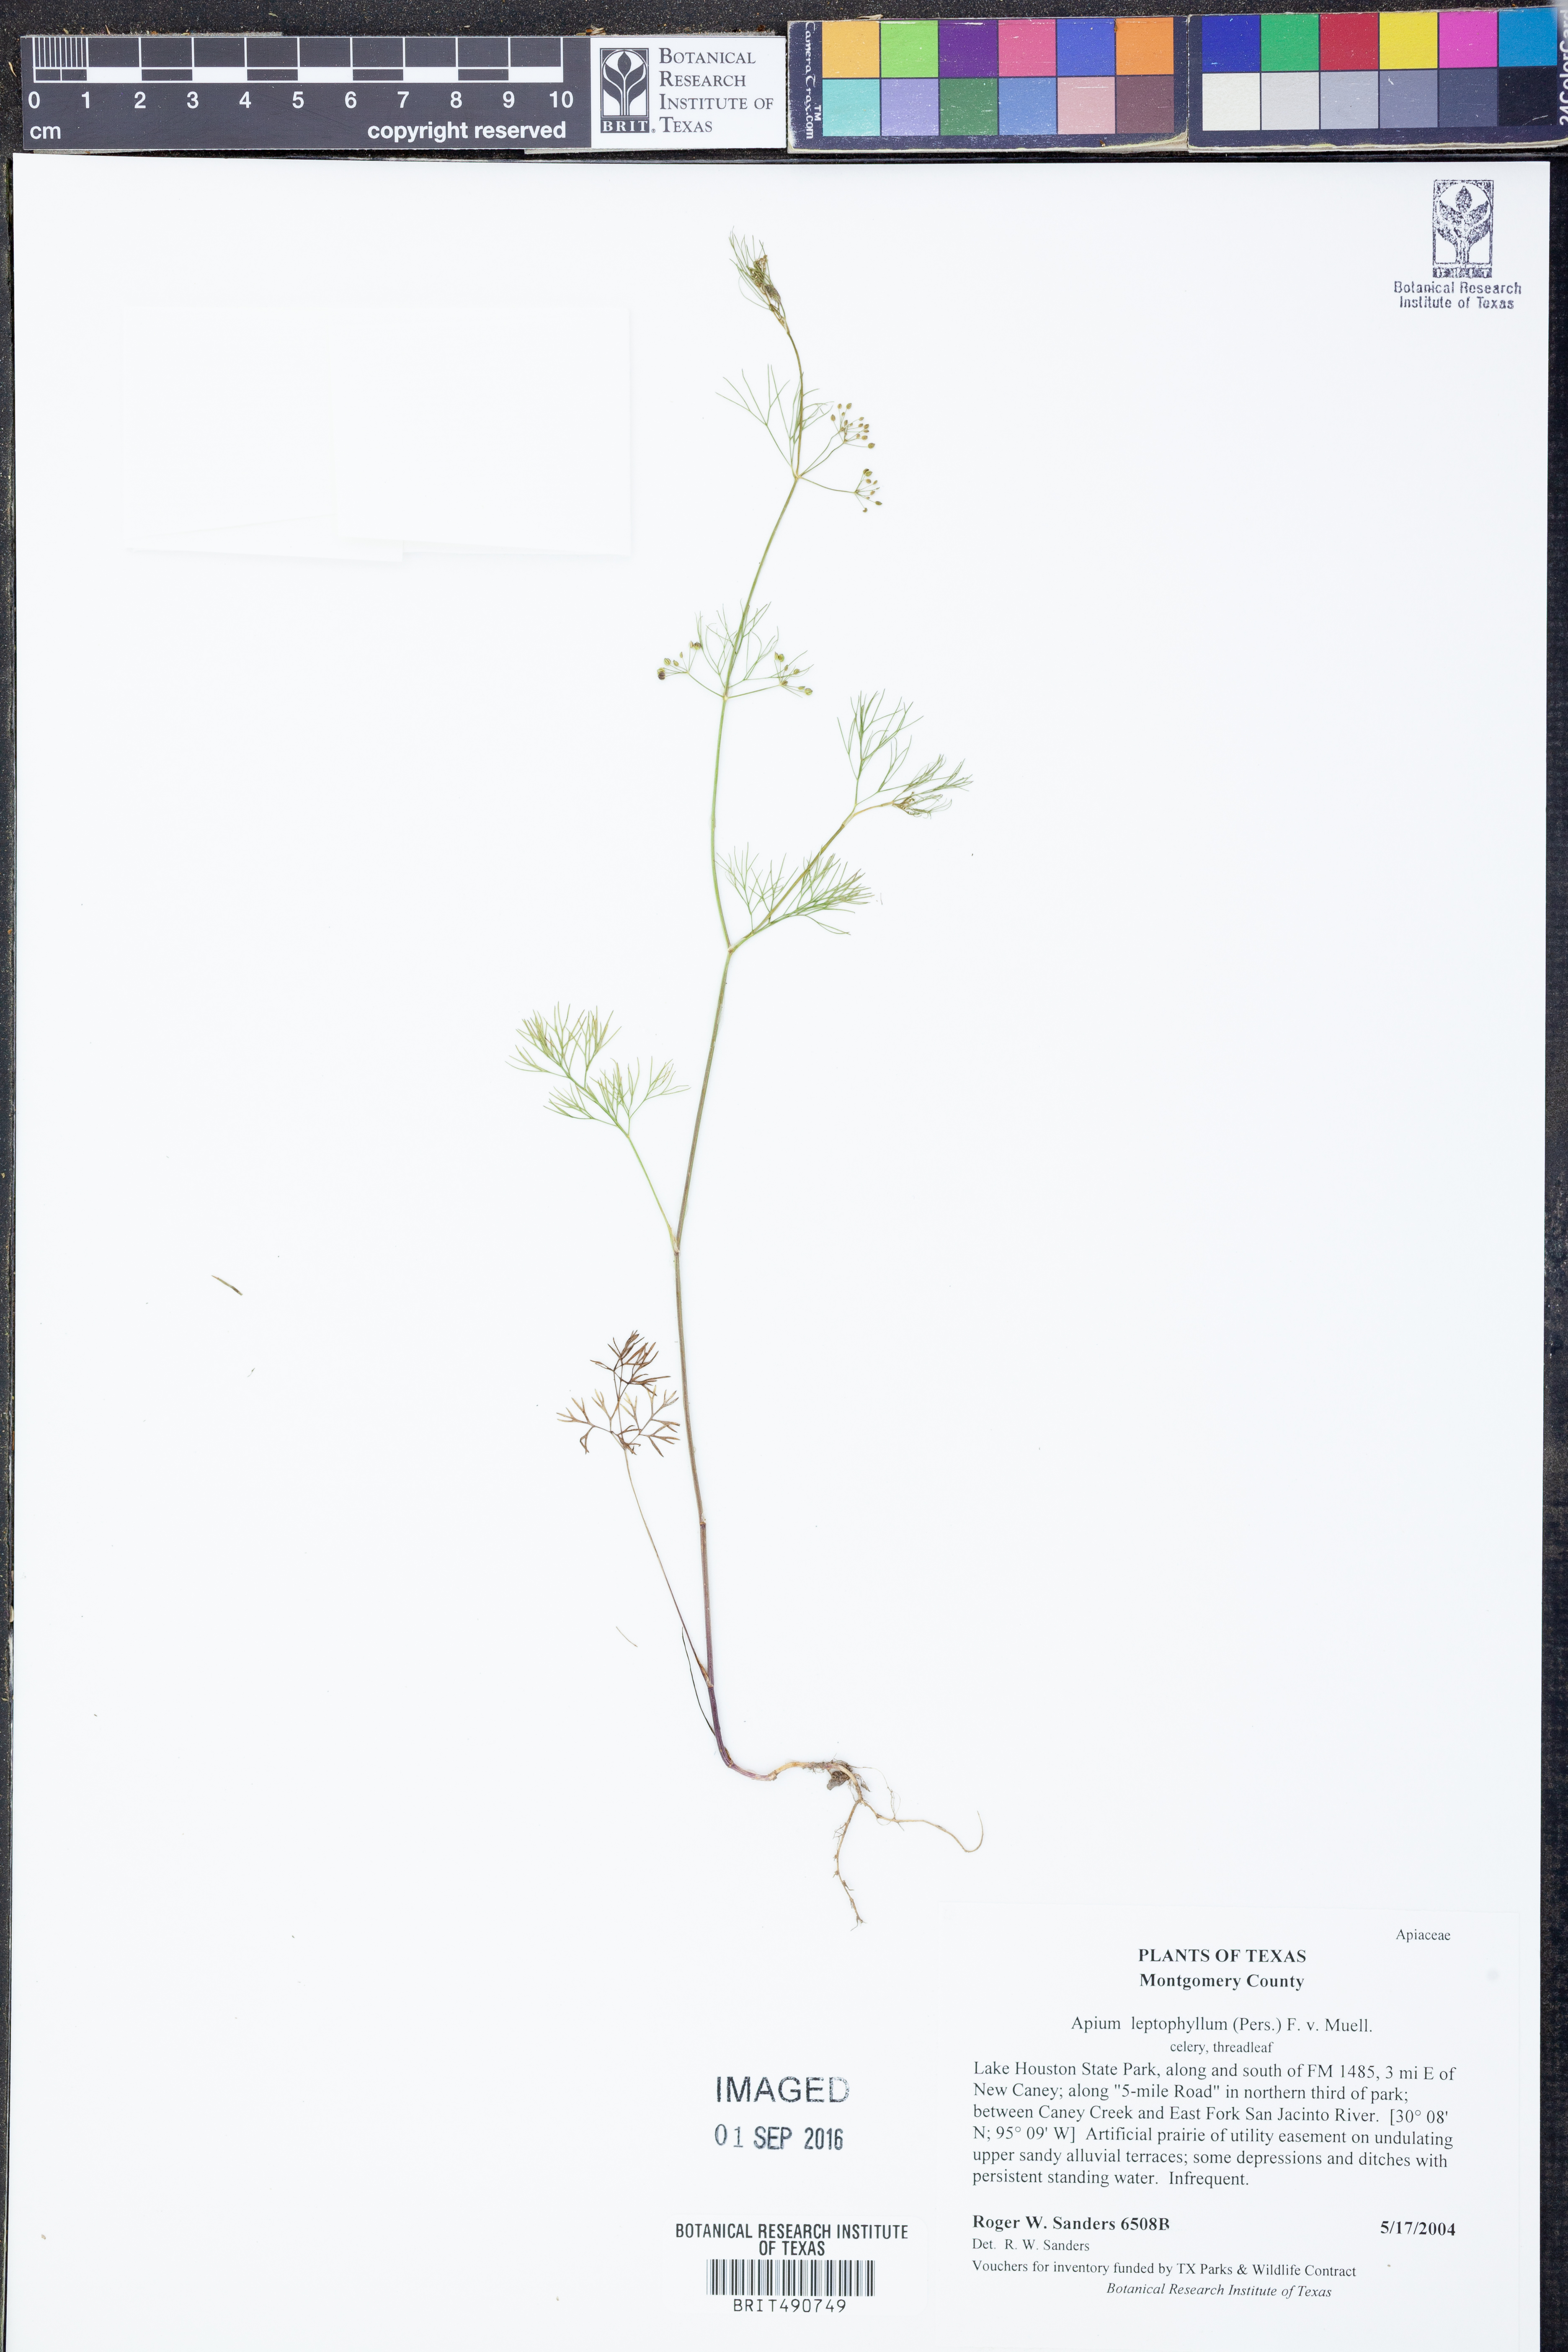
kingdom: Plantae
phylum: Tracheophyta
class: Magnoliopsida
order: Apiales
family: Apiaceae
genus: Apium
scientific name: Apium graveolens
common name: Wild celery
